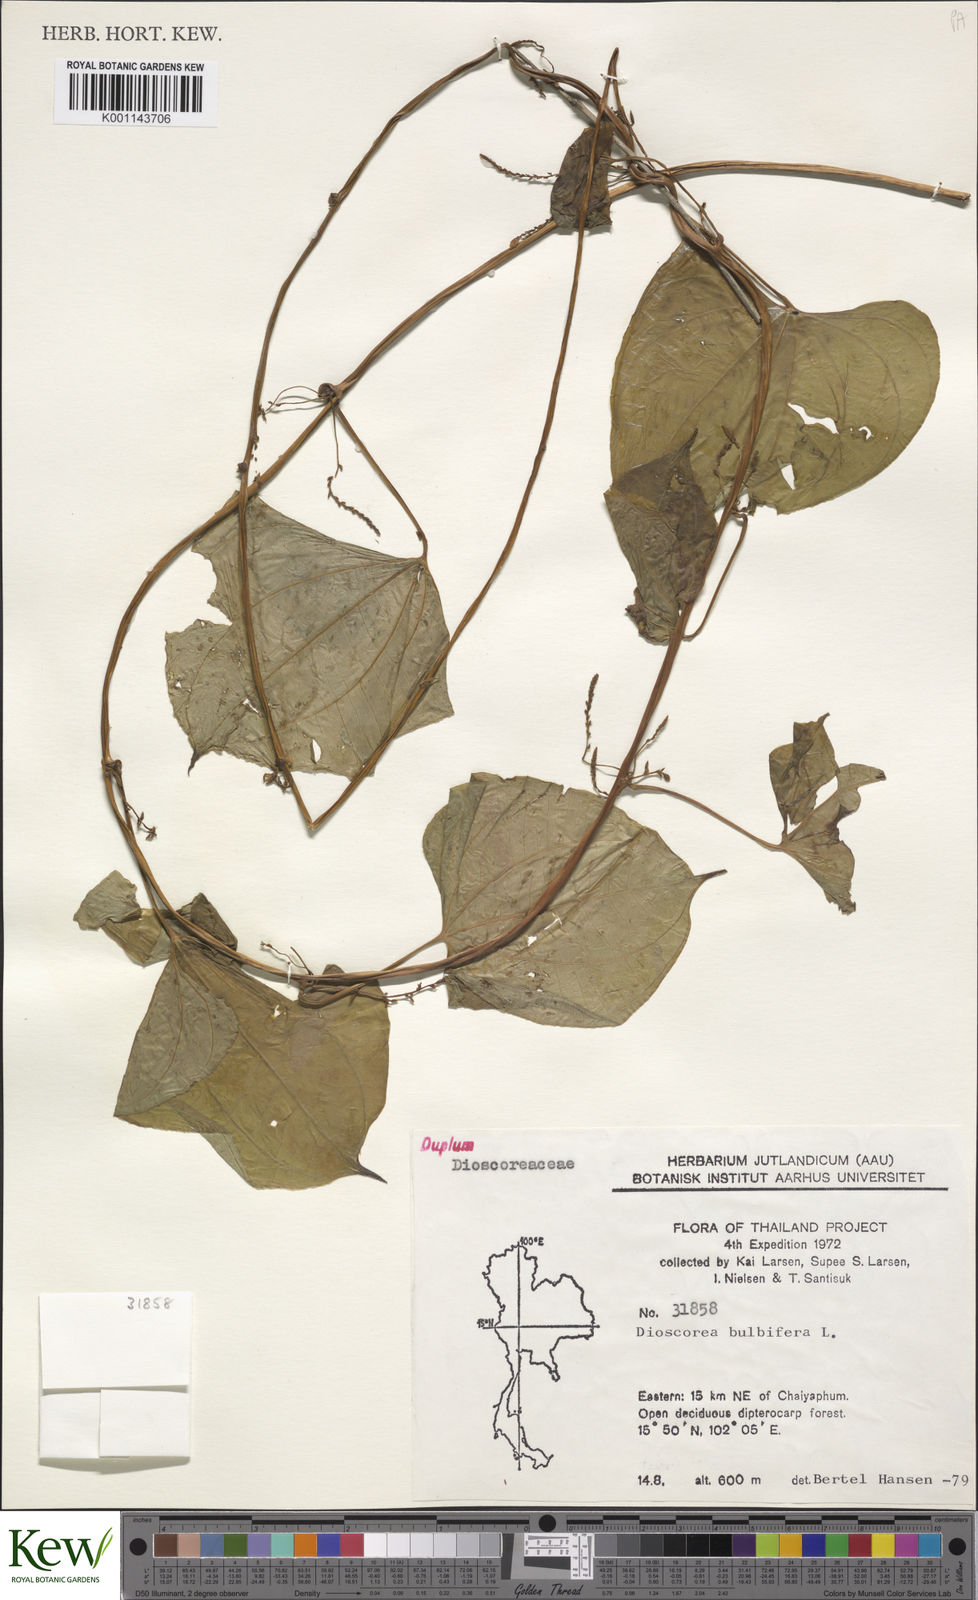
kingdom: Plantae
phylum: Tracheophyta
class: Liliopsida
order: Dioscoreales
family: Dioscoreaceae
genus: Dioscorea
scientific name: Dioscorea bulbifera
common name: Air yam
